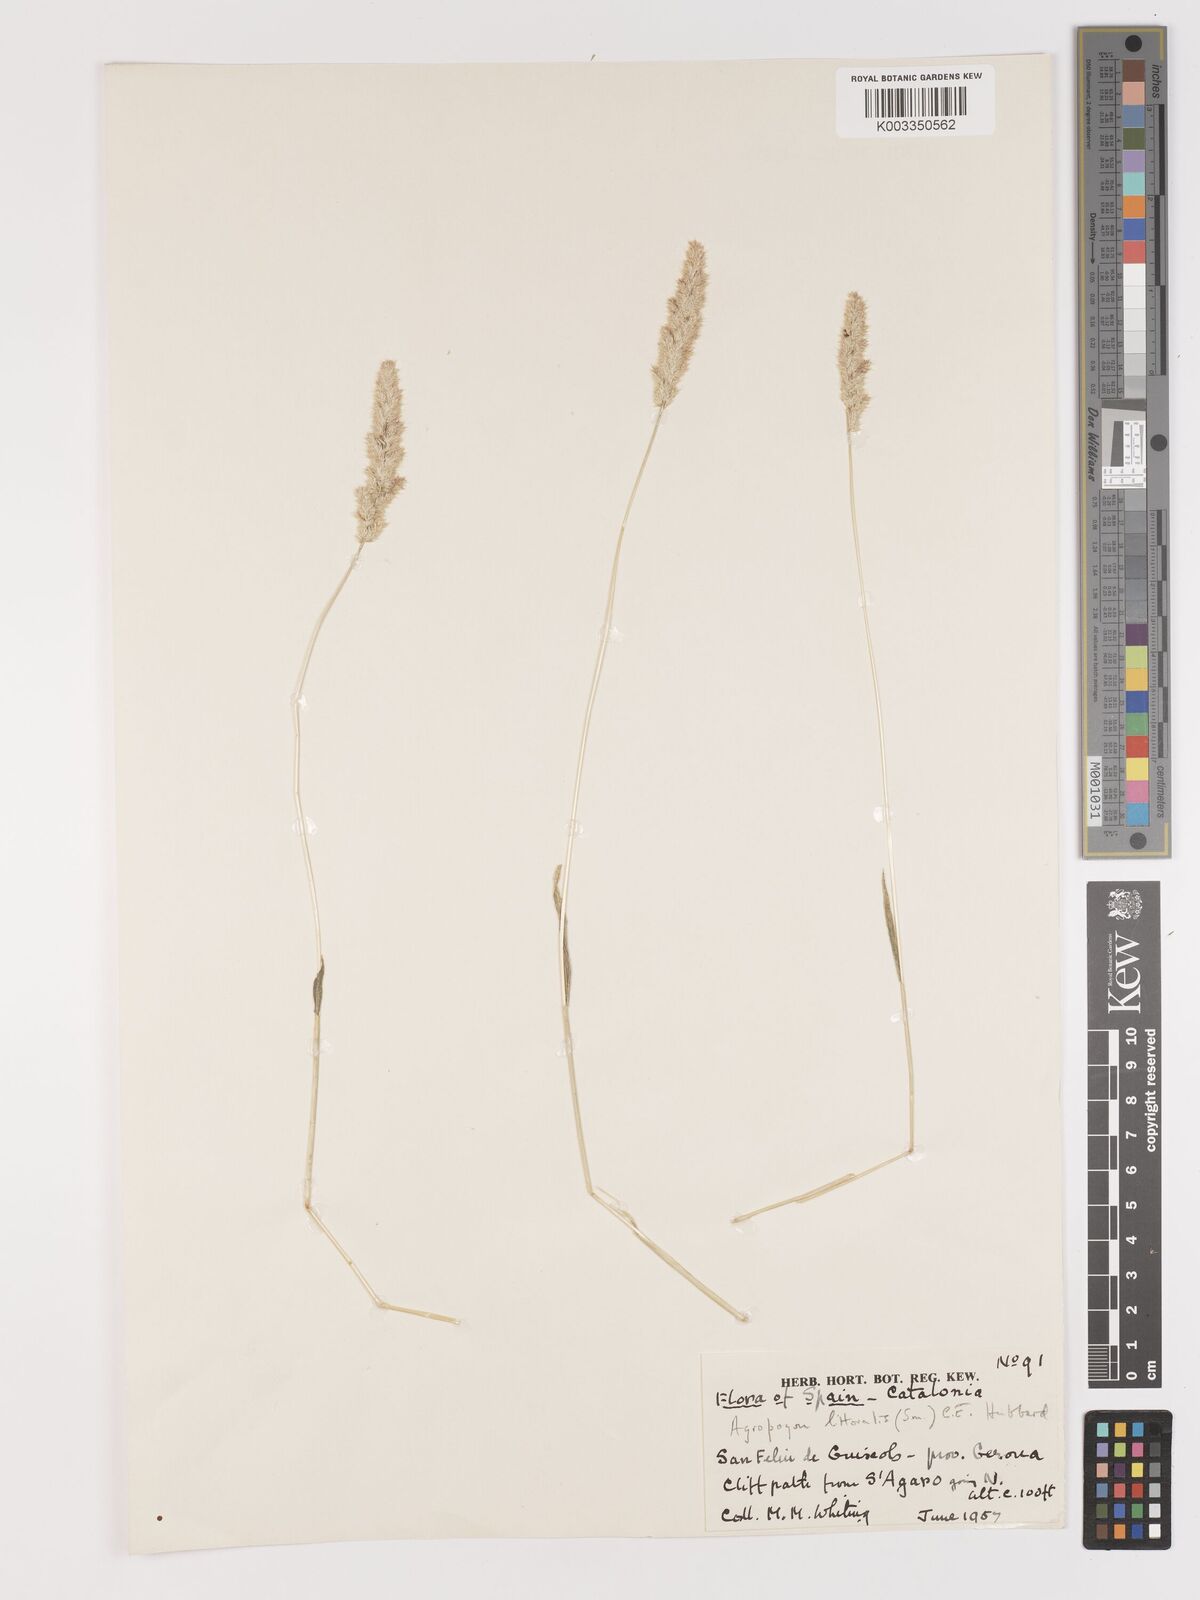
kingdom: Plantae
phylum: Tracheophyta
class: Liliopsida
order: Poales
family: Poaceae
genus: Agropogon
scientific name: Agropogon lutosus
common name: Coast agropogon
